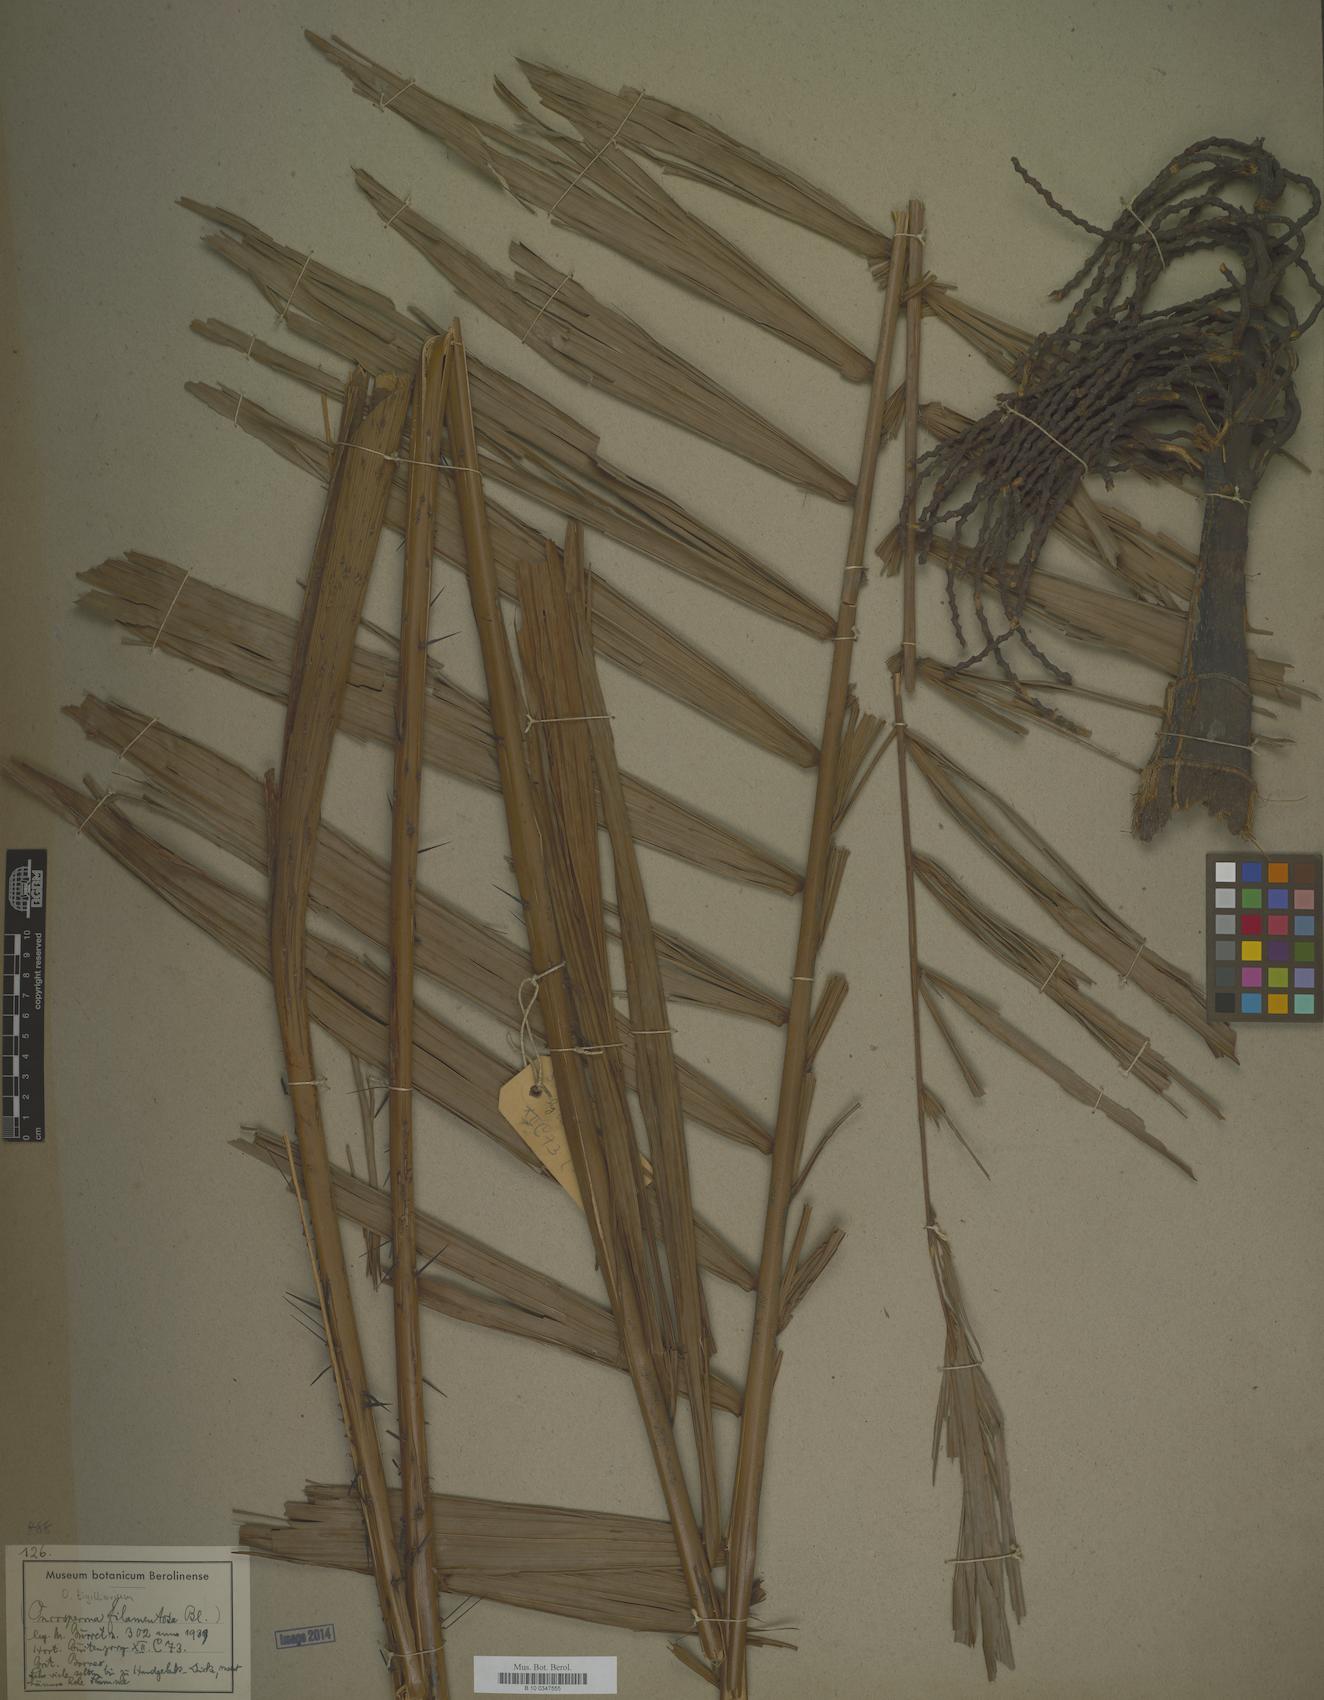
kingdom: Plantae
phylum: Tracheophyta
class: Liliopsida
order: Arecales
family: Arecaceae
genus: Oncosperma
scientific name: Oncosperma tigillarium
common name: Nibong
